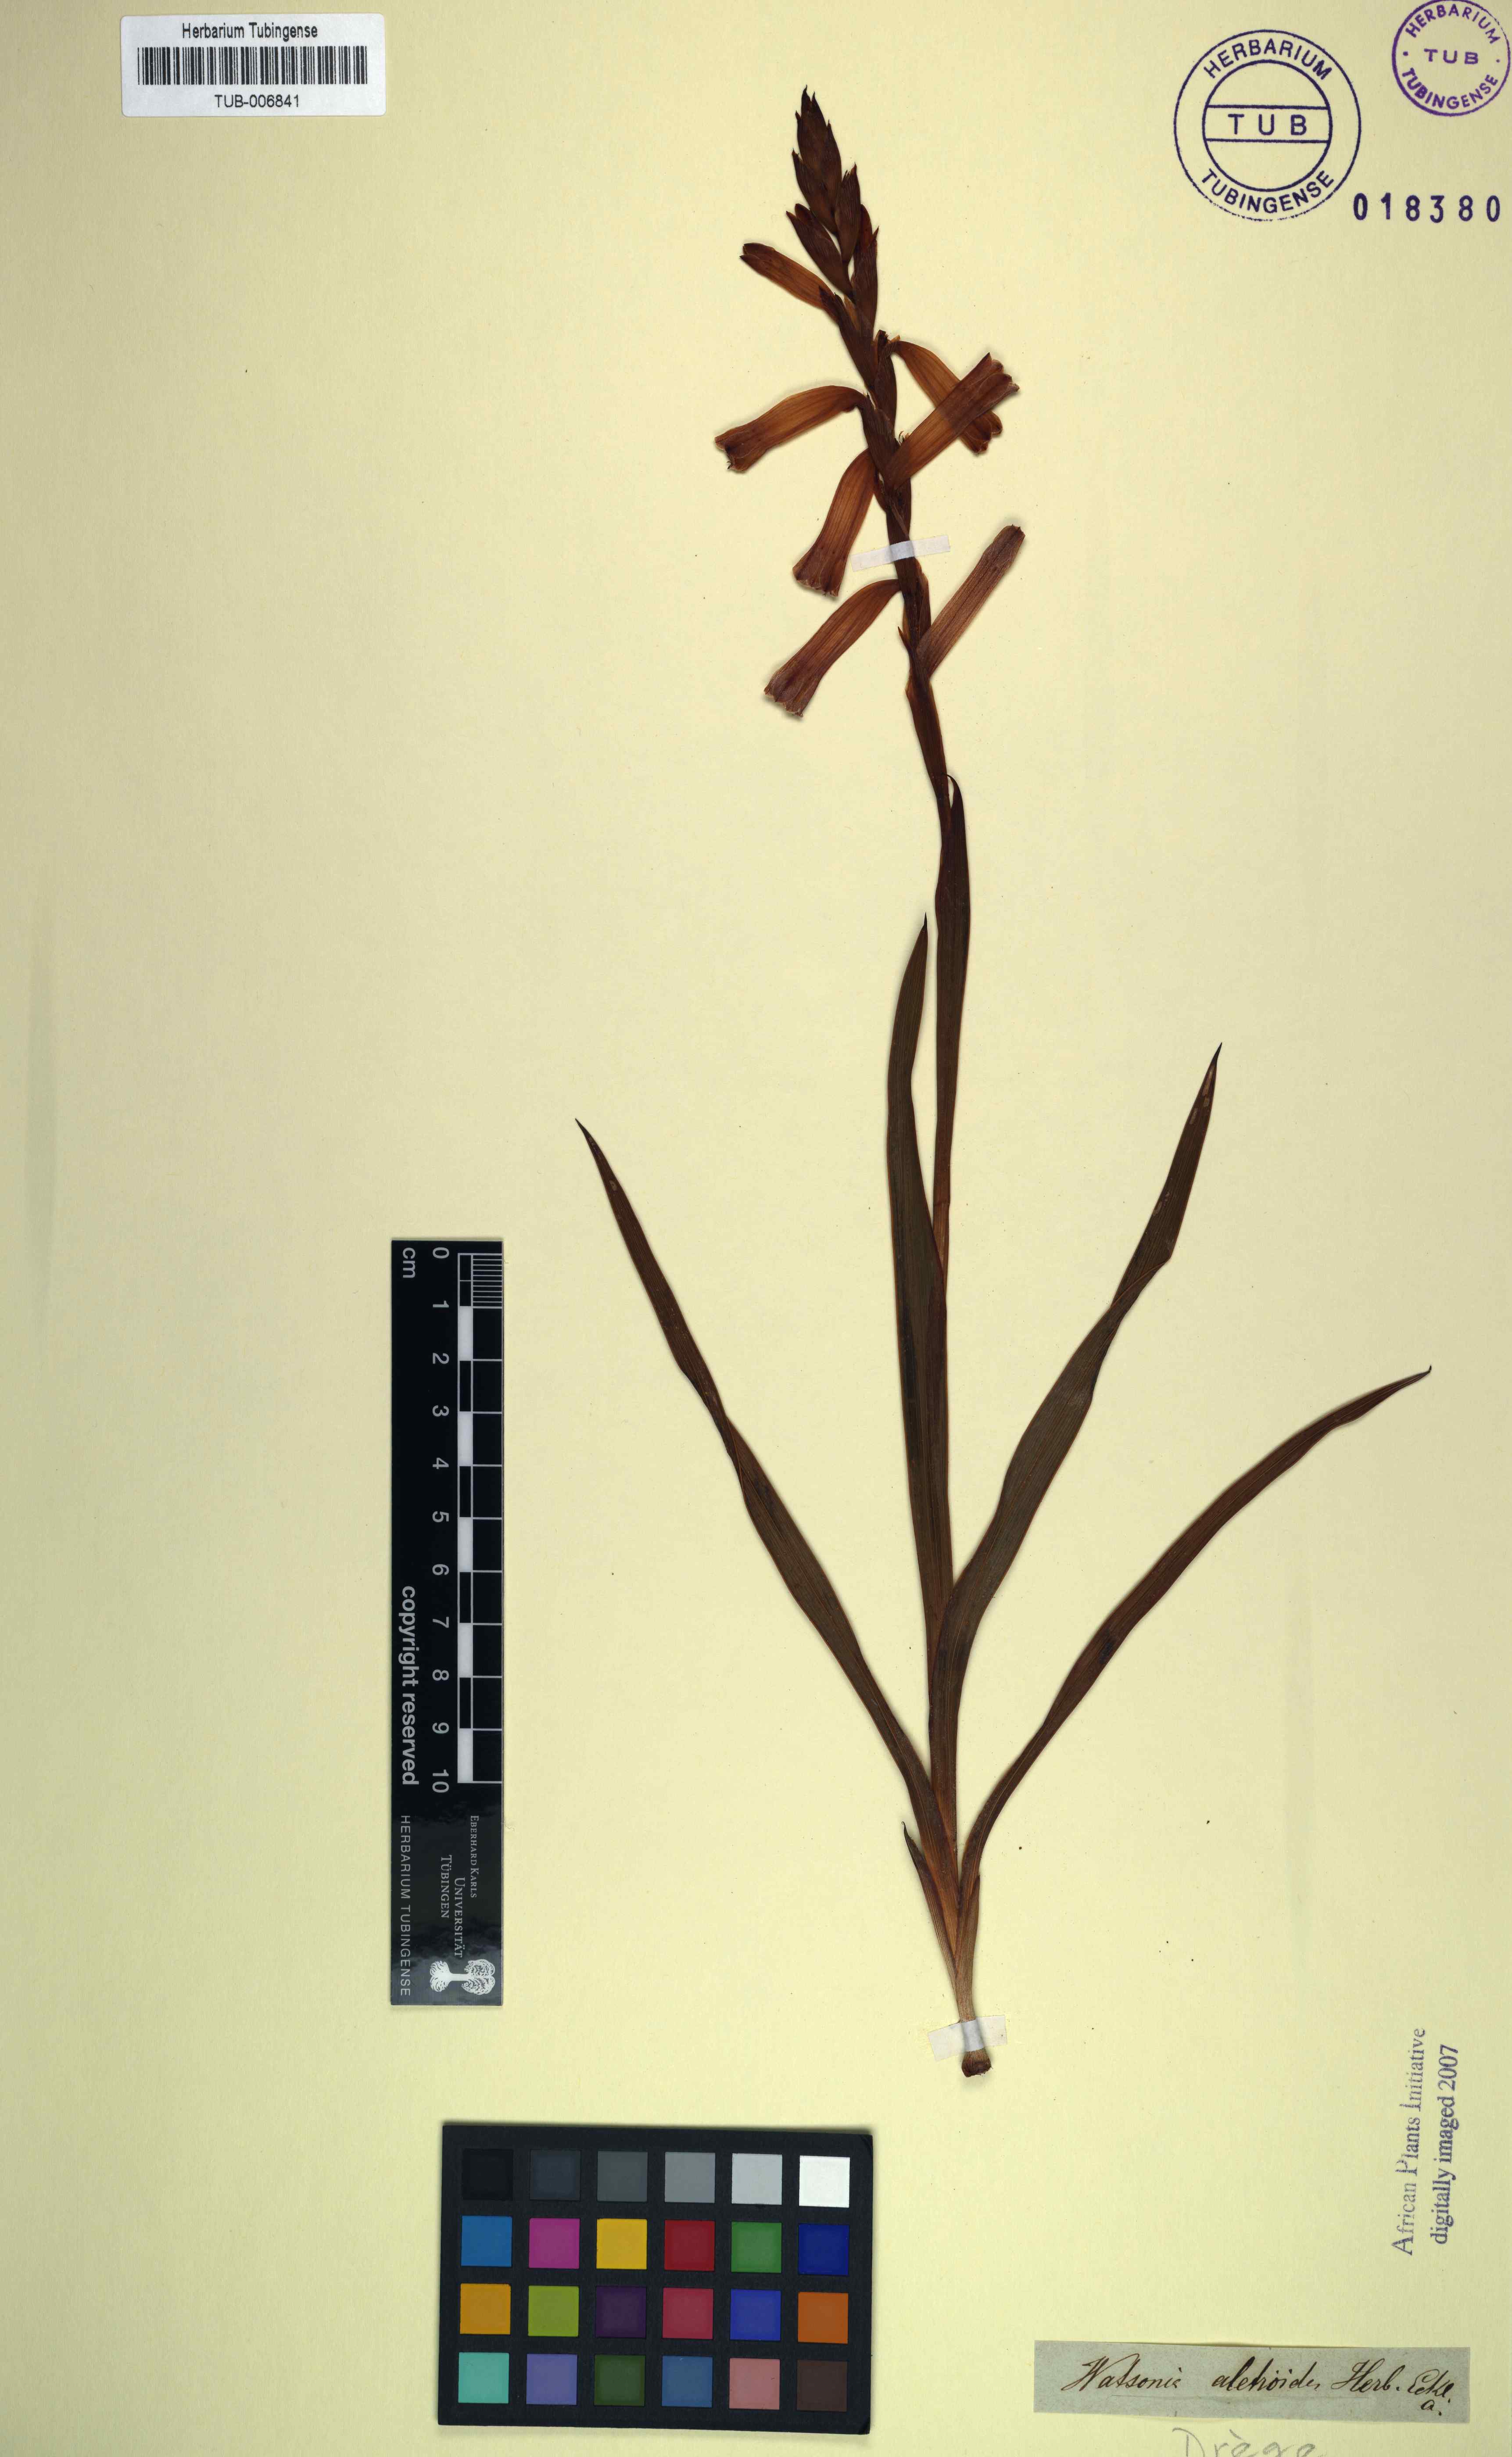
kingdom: Plantae
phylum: Tracheophyta
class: Liliopsida
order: Asparagales
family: Iridaceae
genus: Watsonia
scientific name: Watsonia aletroides
